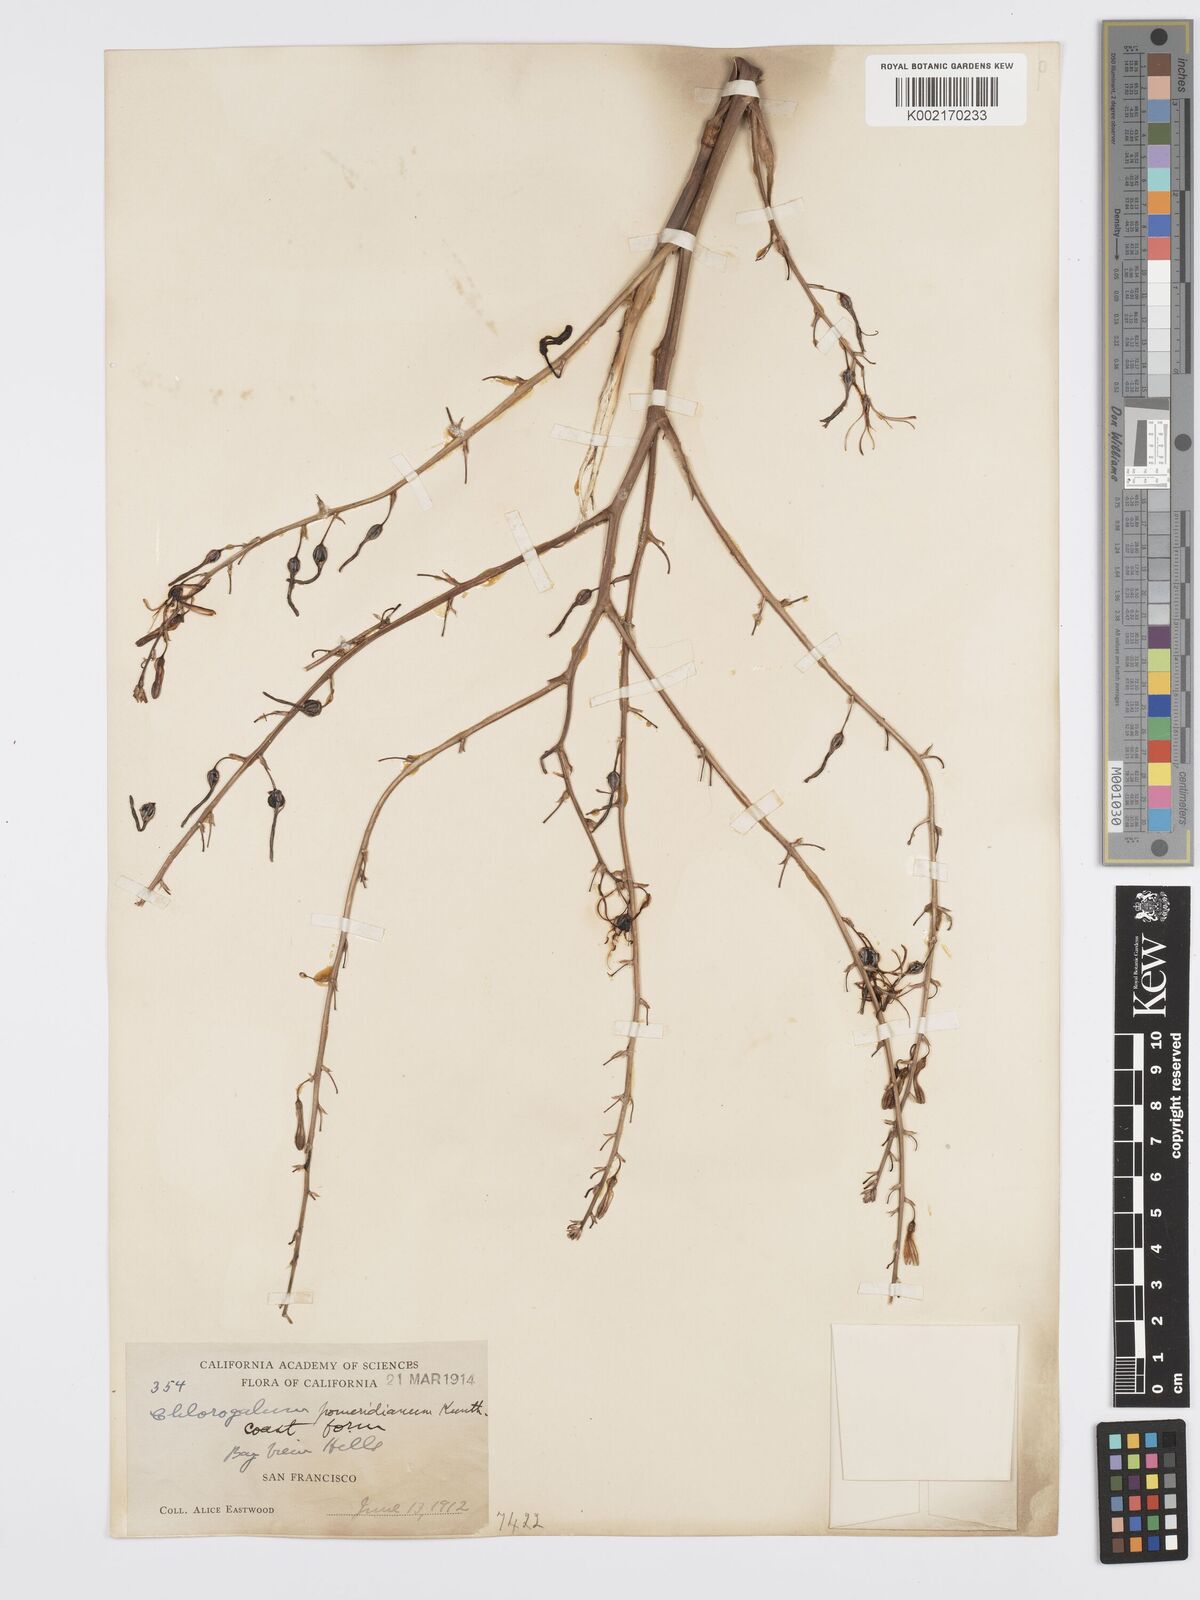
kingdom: Plantae
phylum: Tracheophyta
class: Liliopsida
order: Asparagales
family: Asparagaceae
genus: Chlorogalum
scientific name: Chlorogalum pomeridianum
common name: Amole
